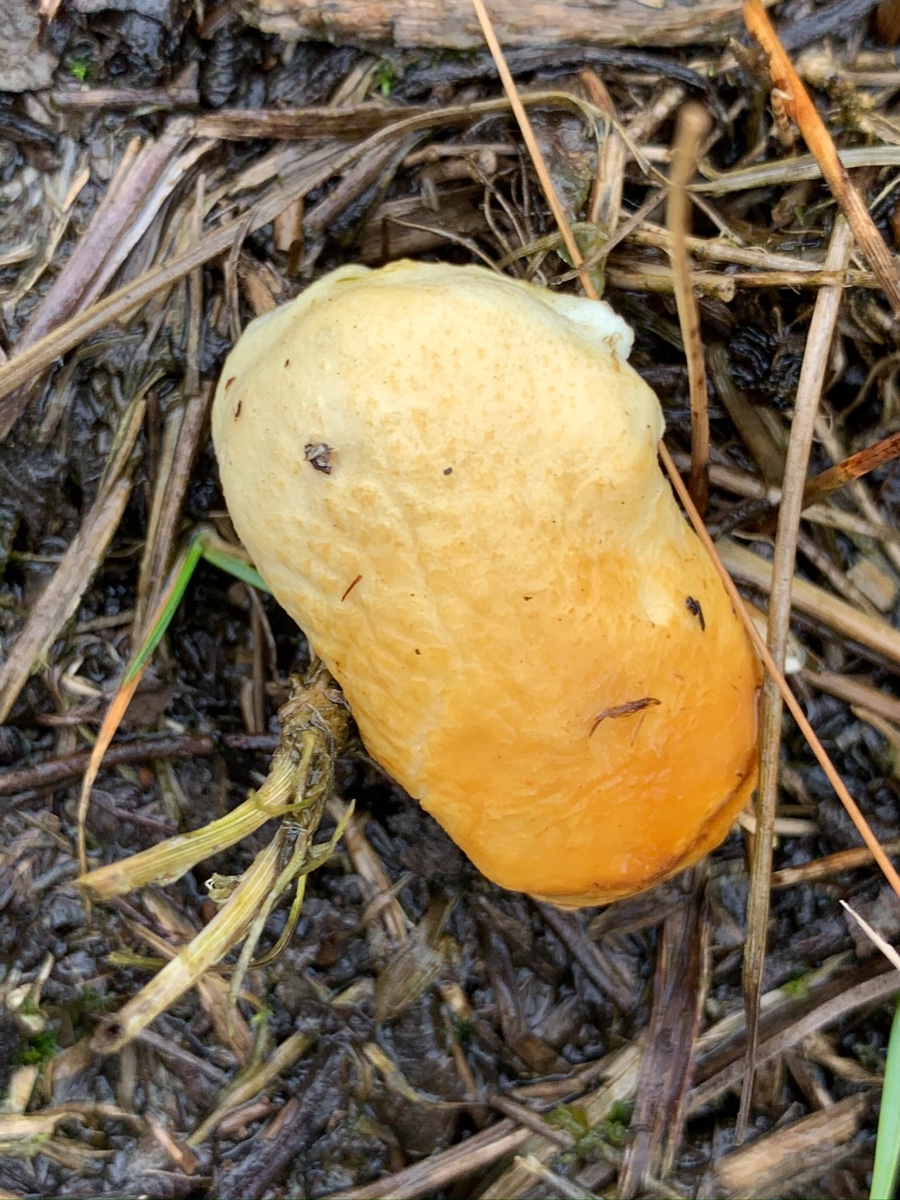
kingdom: Fungi
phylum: Basidiomycota
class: Agaricomycetes
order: Boletales
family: Hygrophoropsidaceae
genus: Hygrophoropsis
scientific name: Hygrophoropsis
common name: orangekantarel
